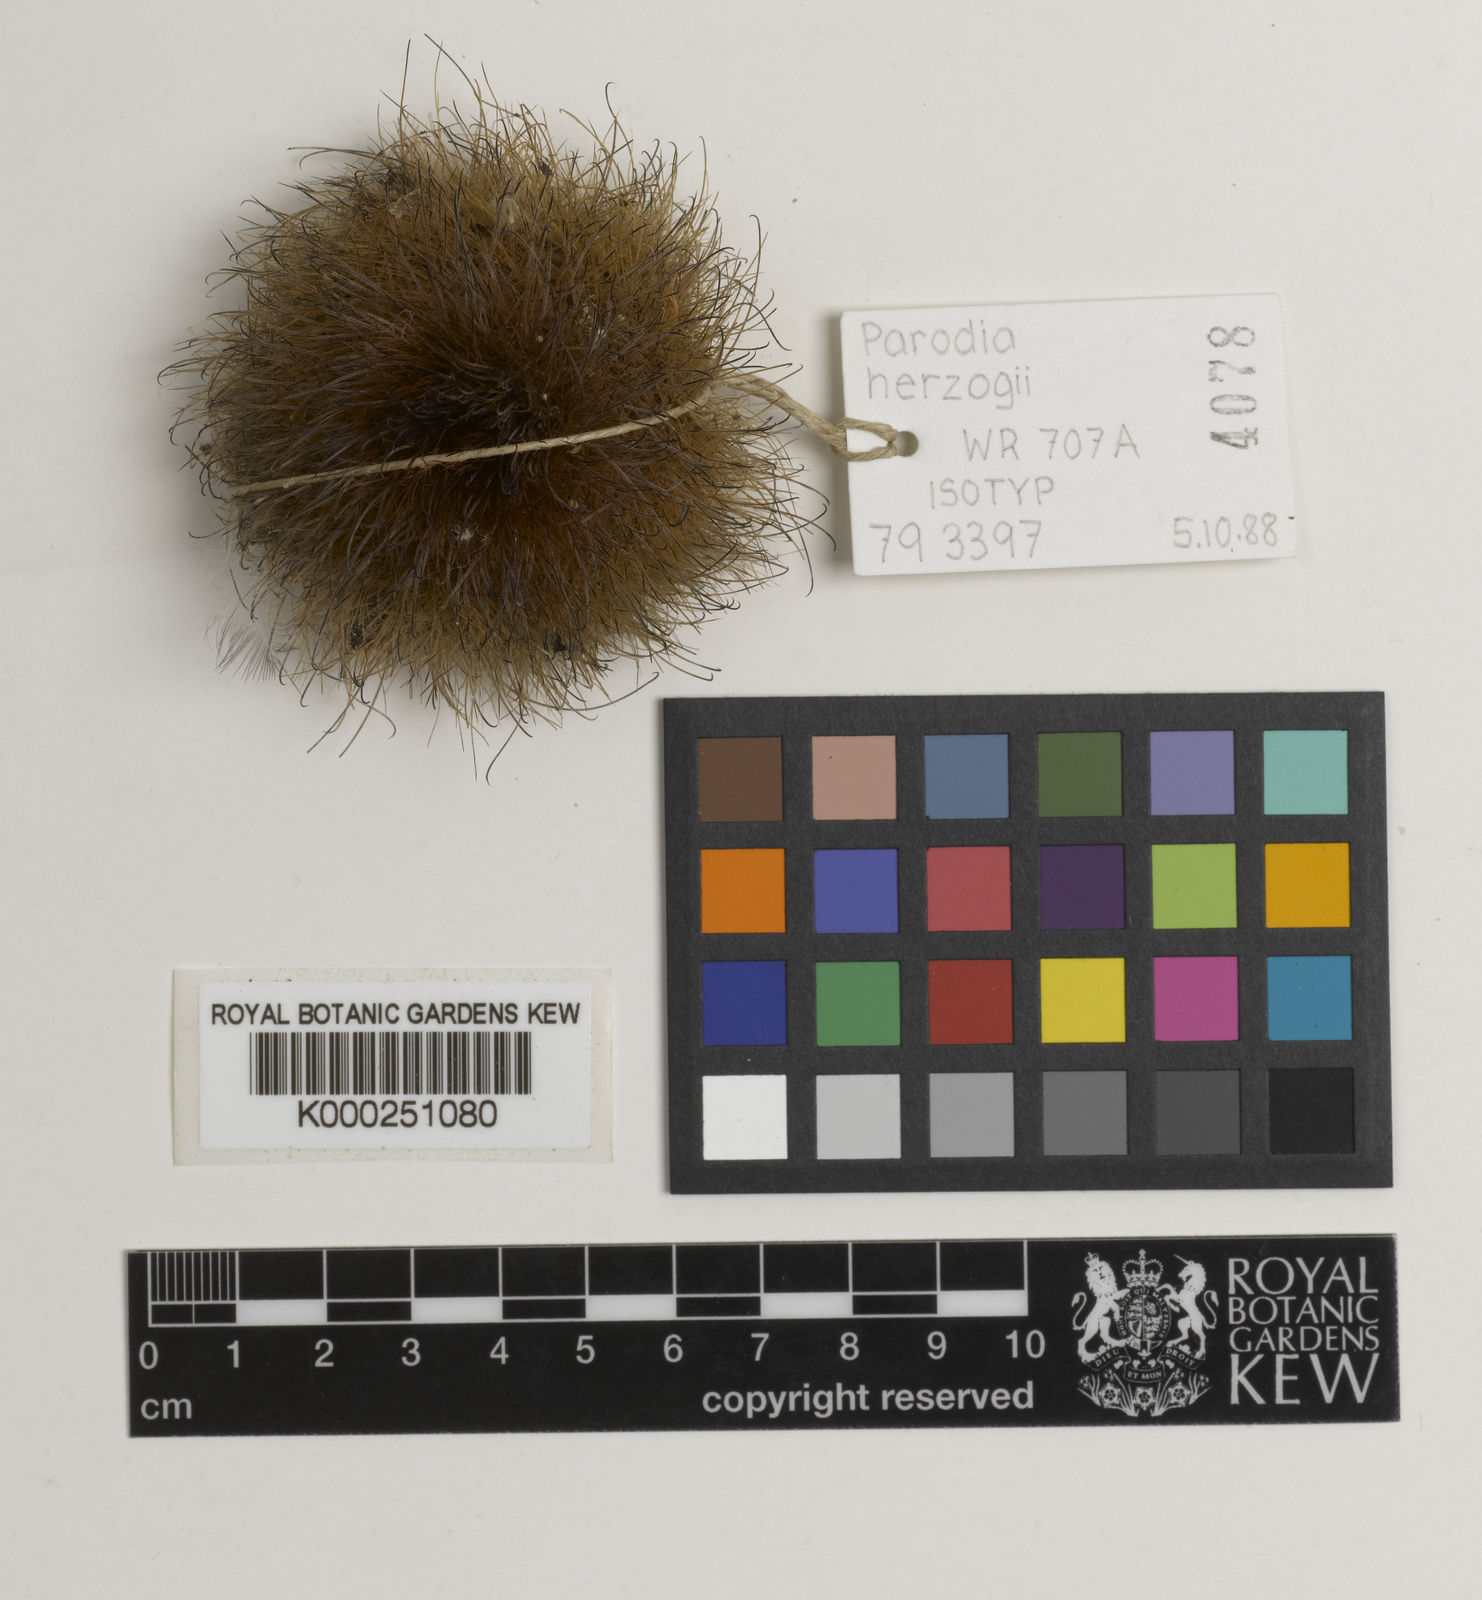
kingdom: Plantae
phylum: Tracheophyta
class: Magnoliopsida
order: Caryophyllales
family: Cactaceae
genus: Parodia
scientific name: Parodia microsperma
